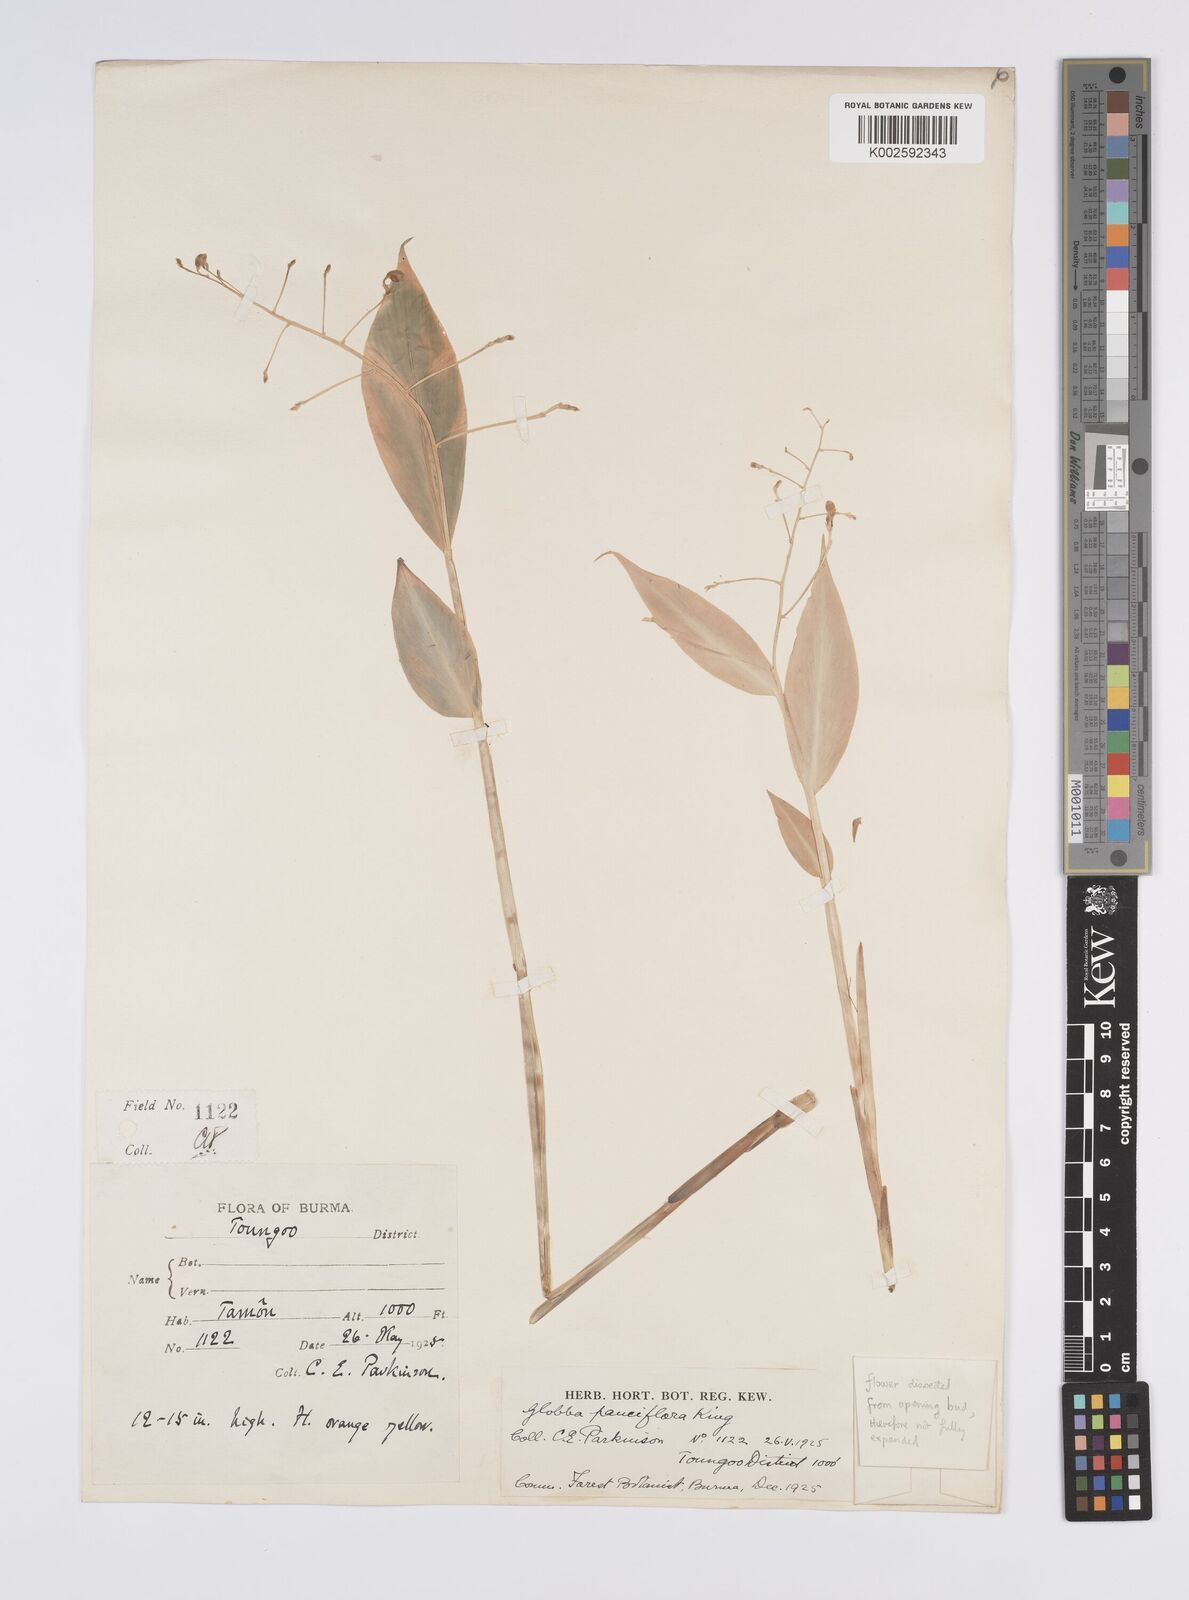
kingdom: Plantae
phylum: Tracheophyta
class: Liliopsida
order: Zingiberales
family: Zingiberaceae
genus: Globba
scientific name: Globba insectifera
